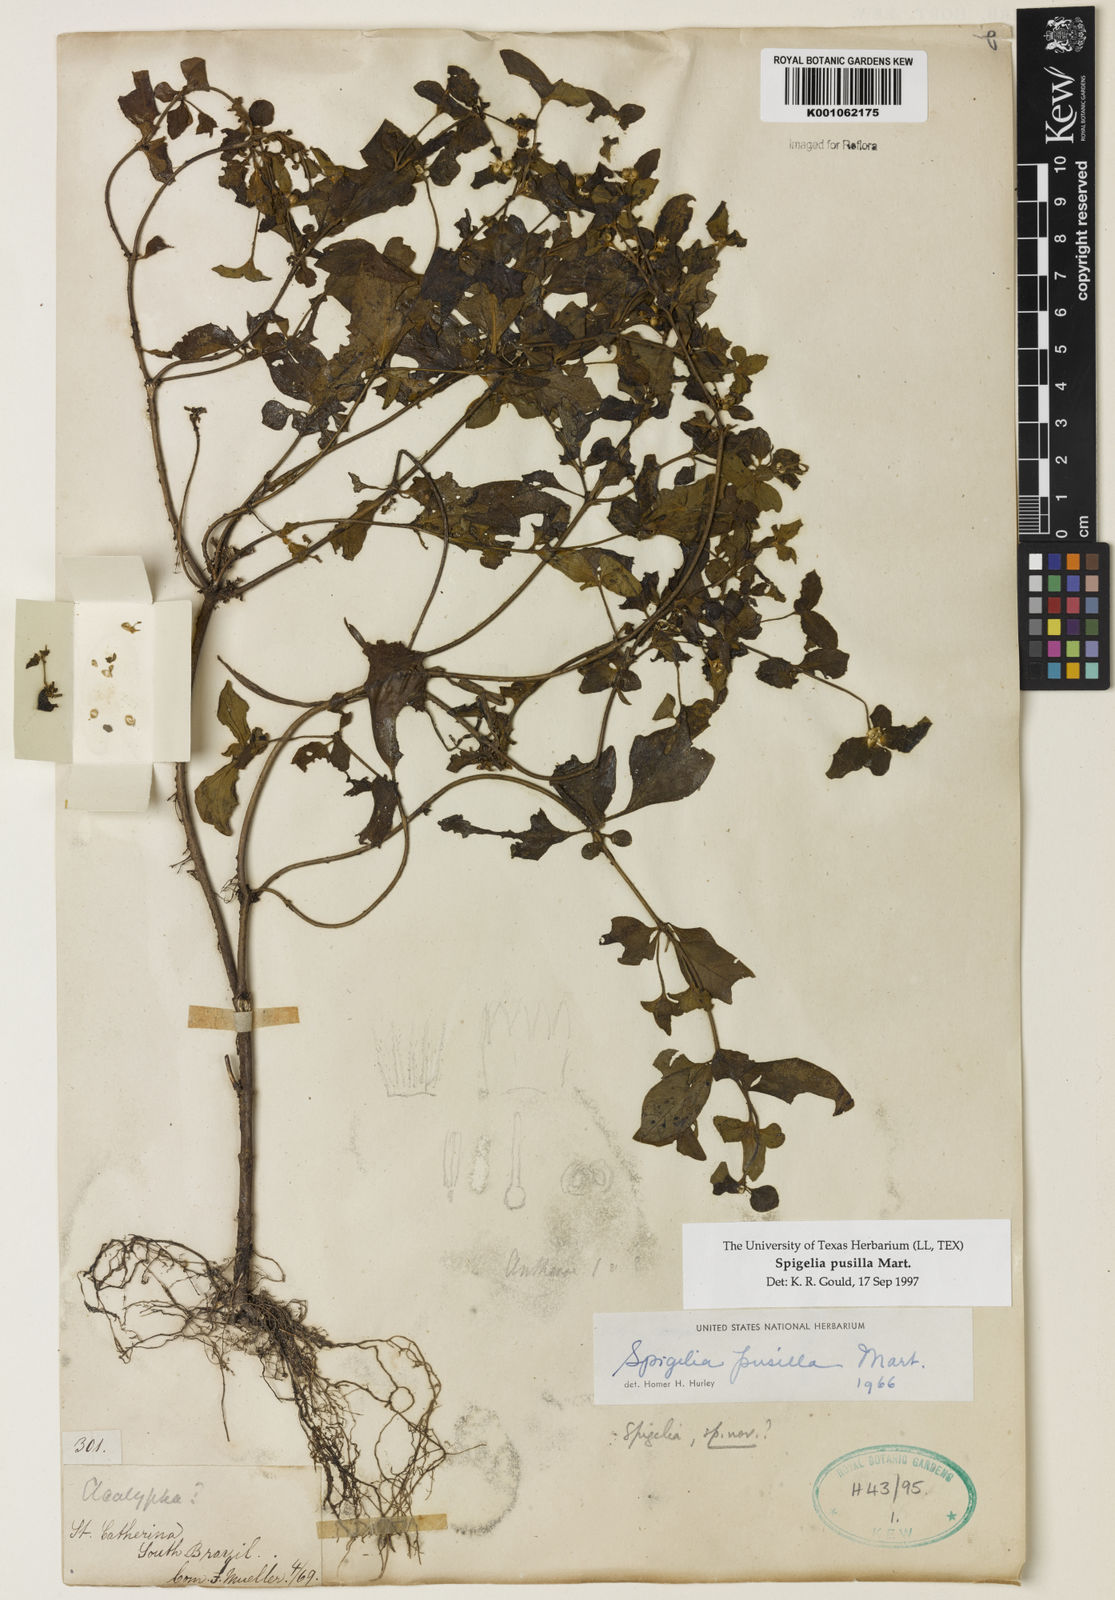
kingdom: Plantae
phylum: Tracheophyta
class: Magnoliopsida
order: Gentianales
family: Loganiaceae
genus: Spigelia
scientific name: Spigelia pusilla
